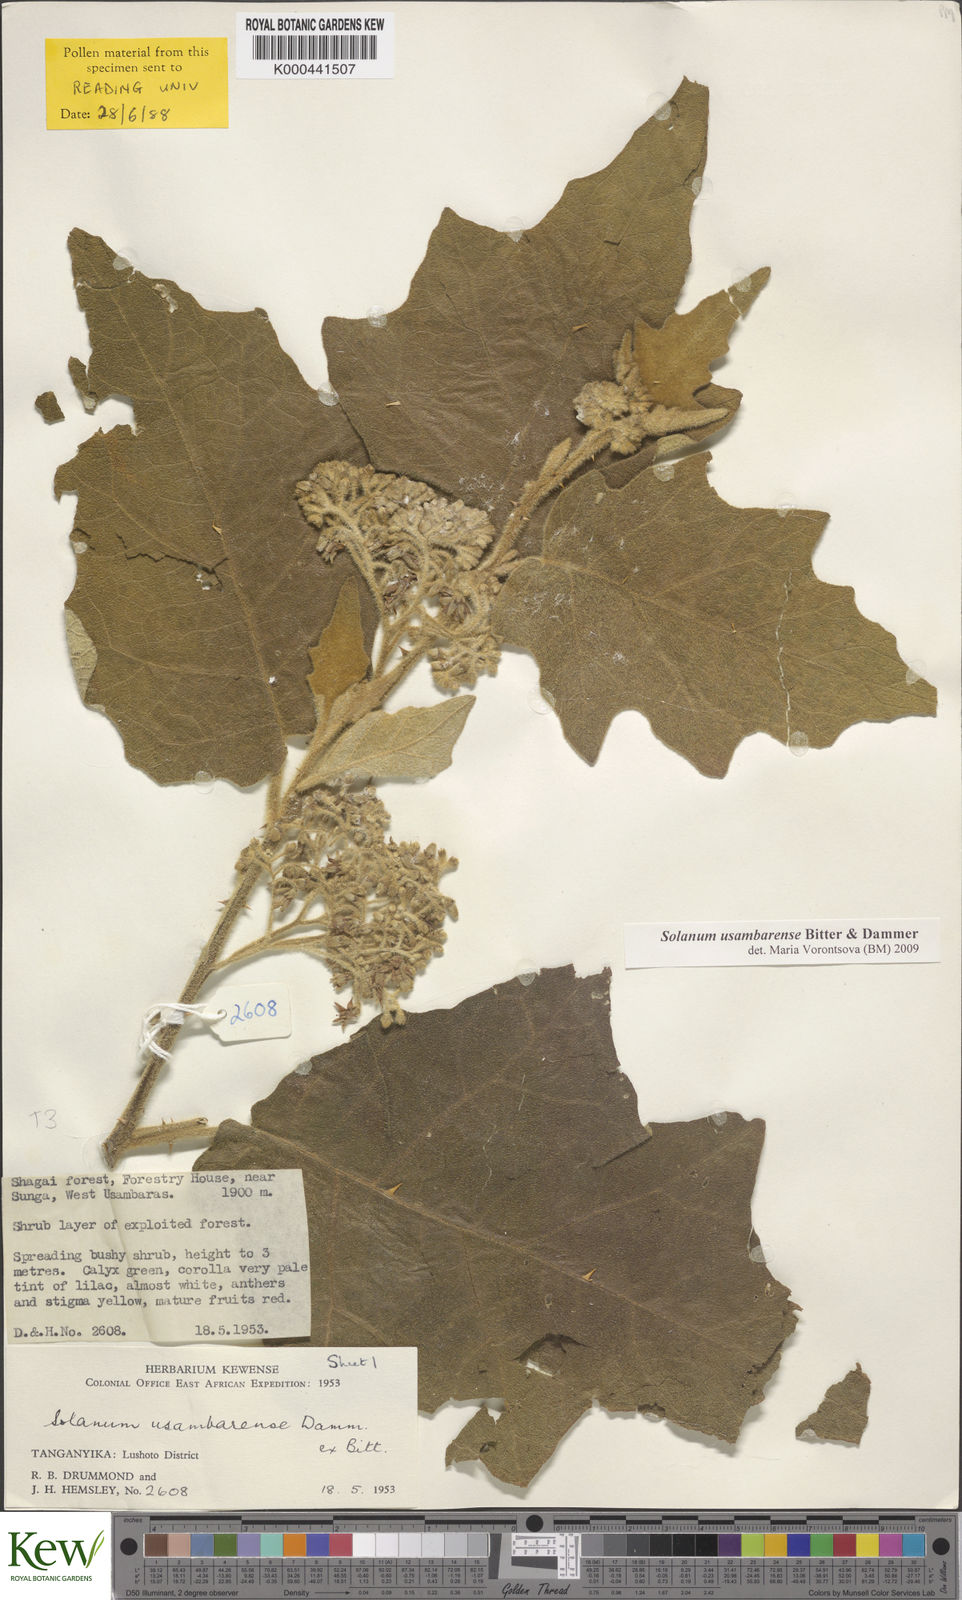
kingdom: Plantae
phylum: Tracheophyta
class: Magnoliopsida
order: Solanales
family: Solanaceae
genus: Solanum
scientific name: Solanum usambarense
